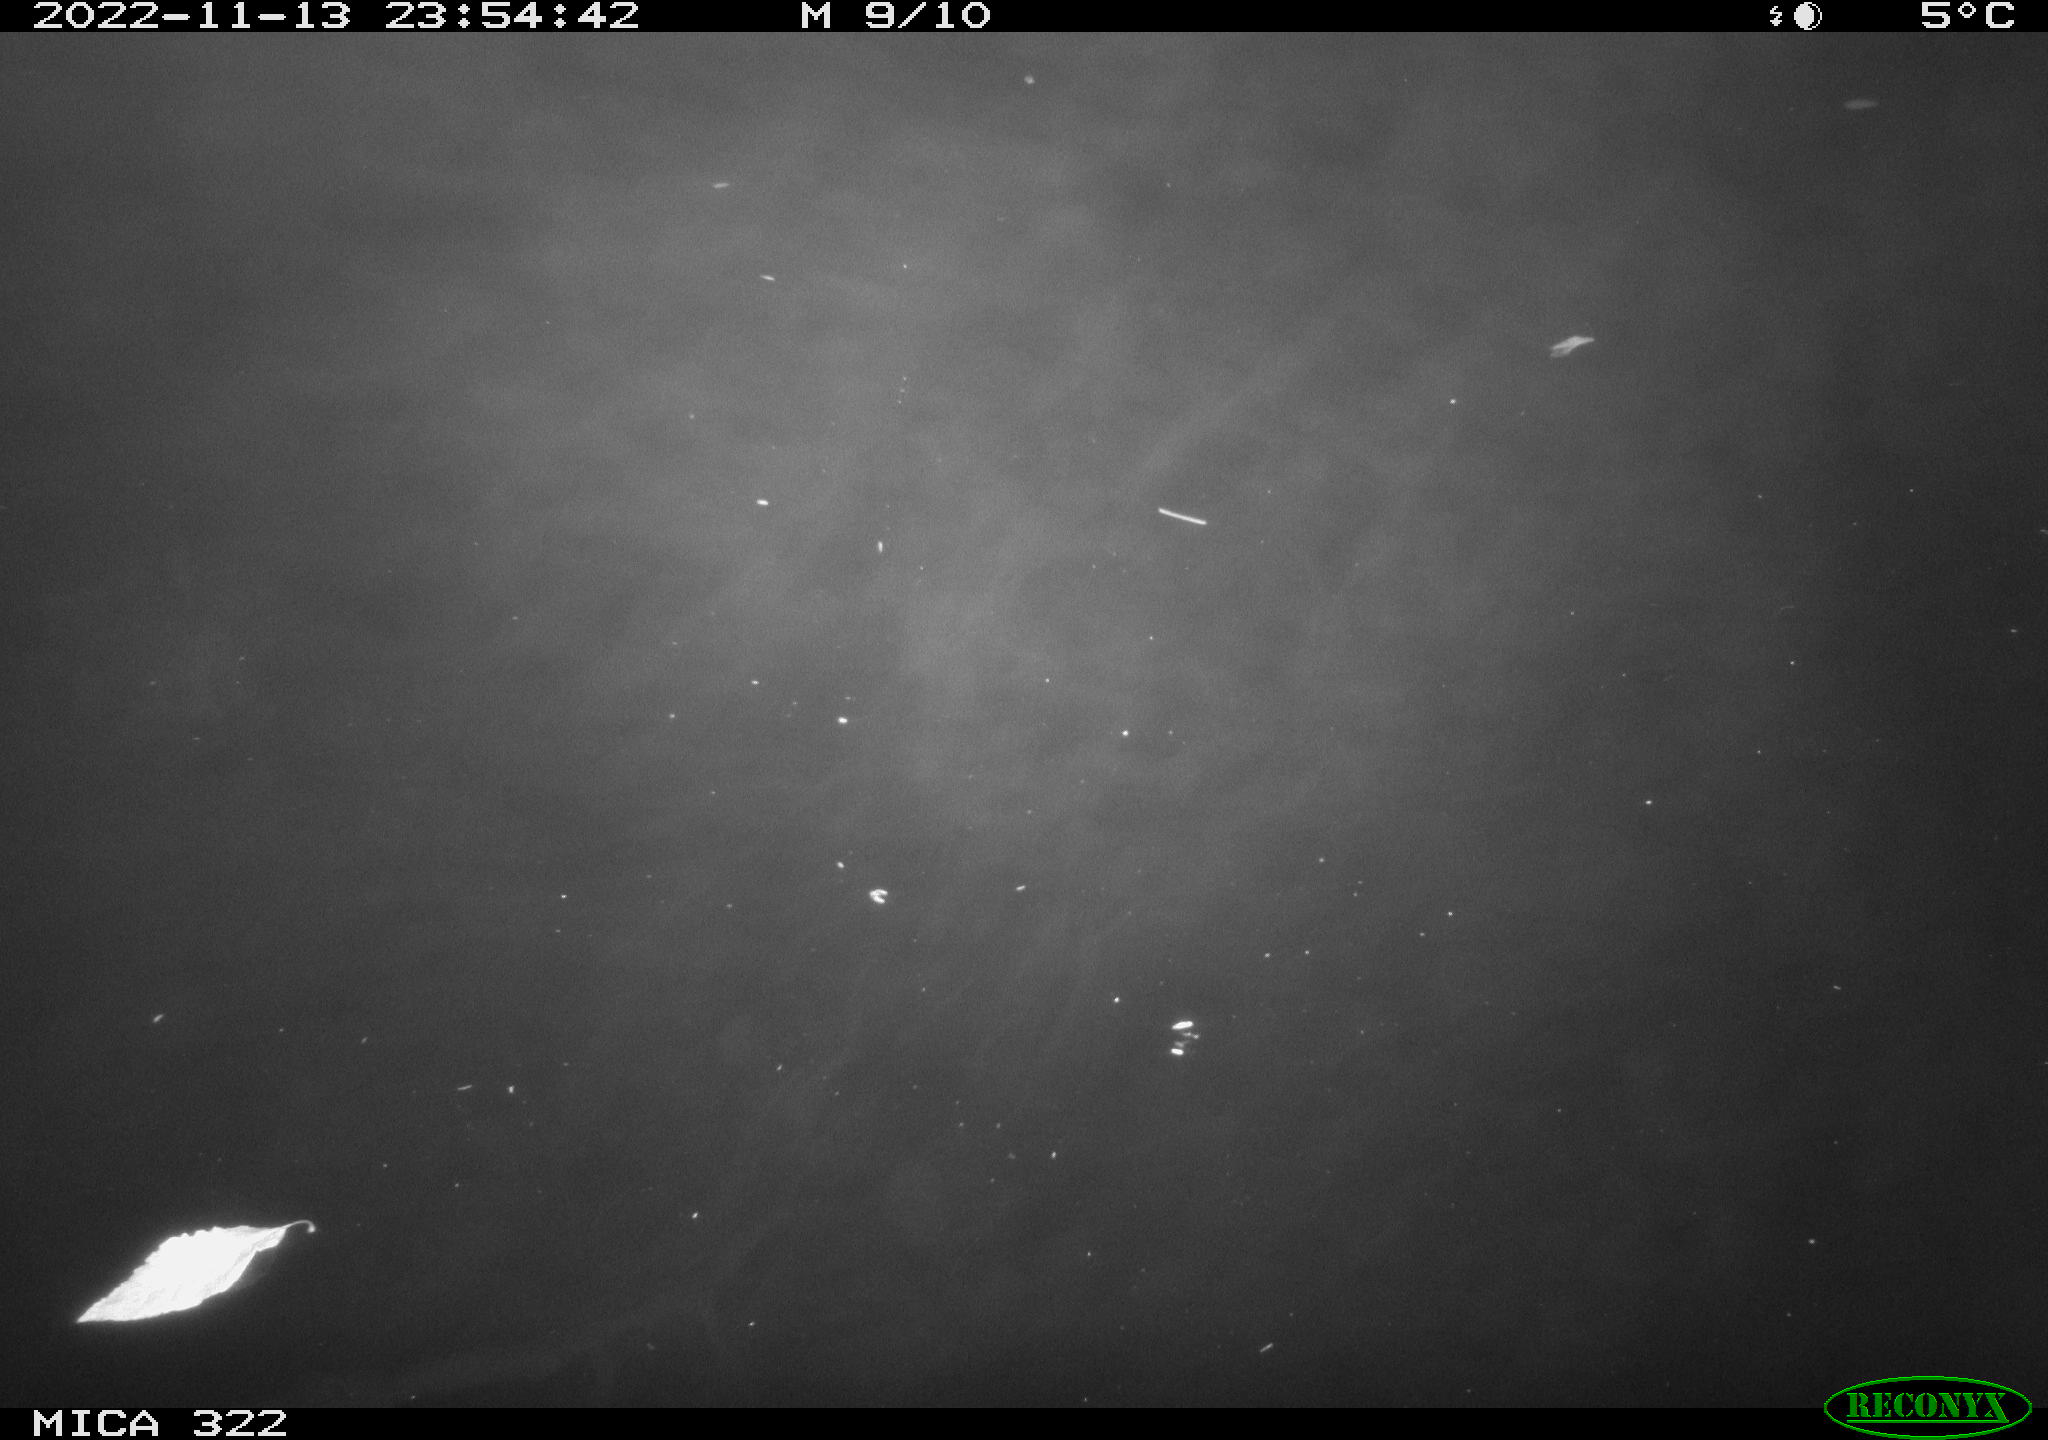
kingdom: Animalia
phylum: Chordata
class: Mammalia
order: Rodentia
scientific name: Rodentia
